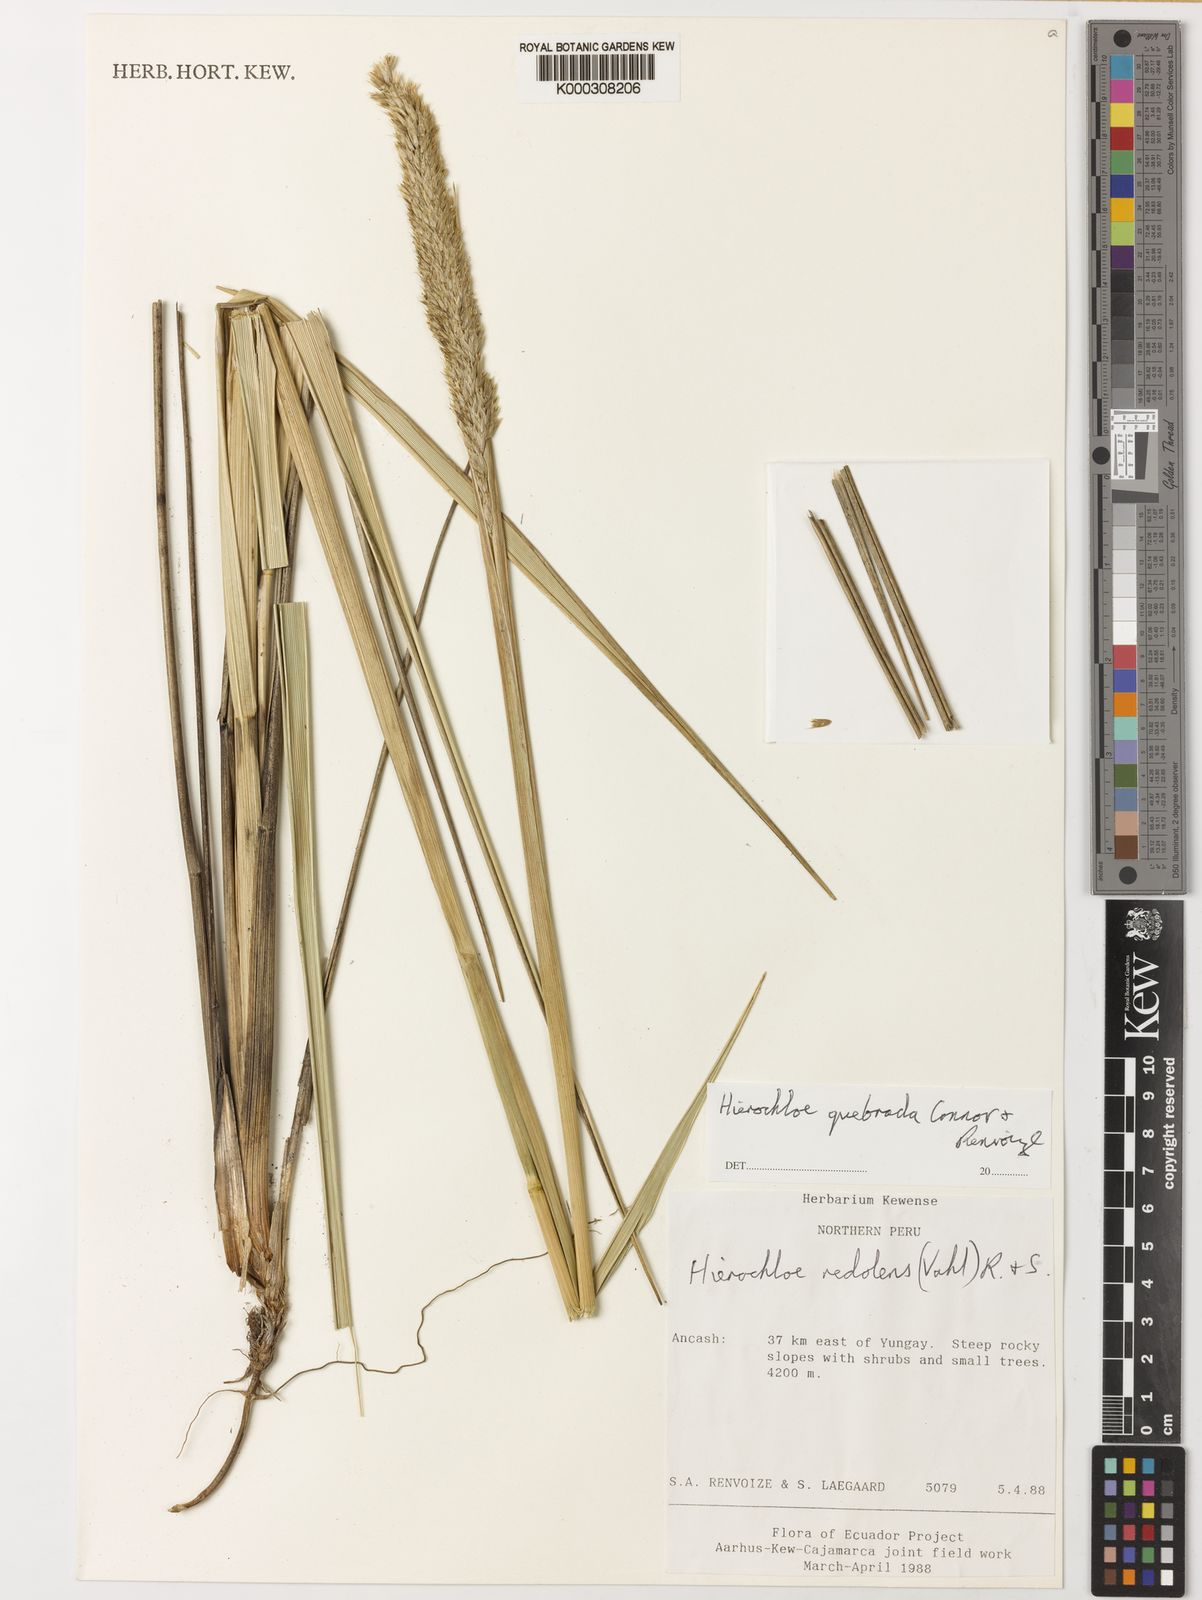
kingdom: Plantae
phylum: Tracheophyta
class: Liliopsida
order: Poales
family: Poaceae
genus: Anthoxanthum
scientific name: Anthoxanthum quebrada
